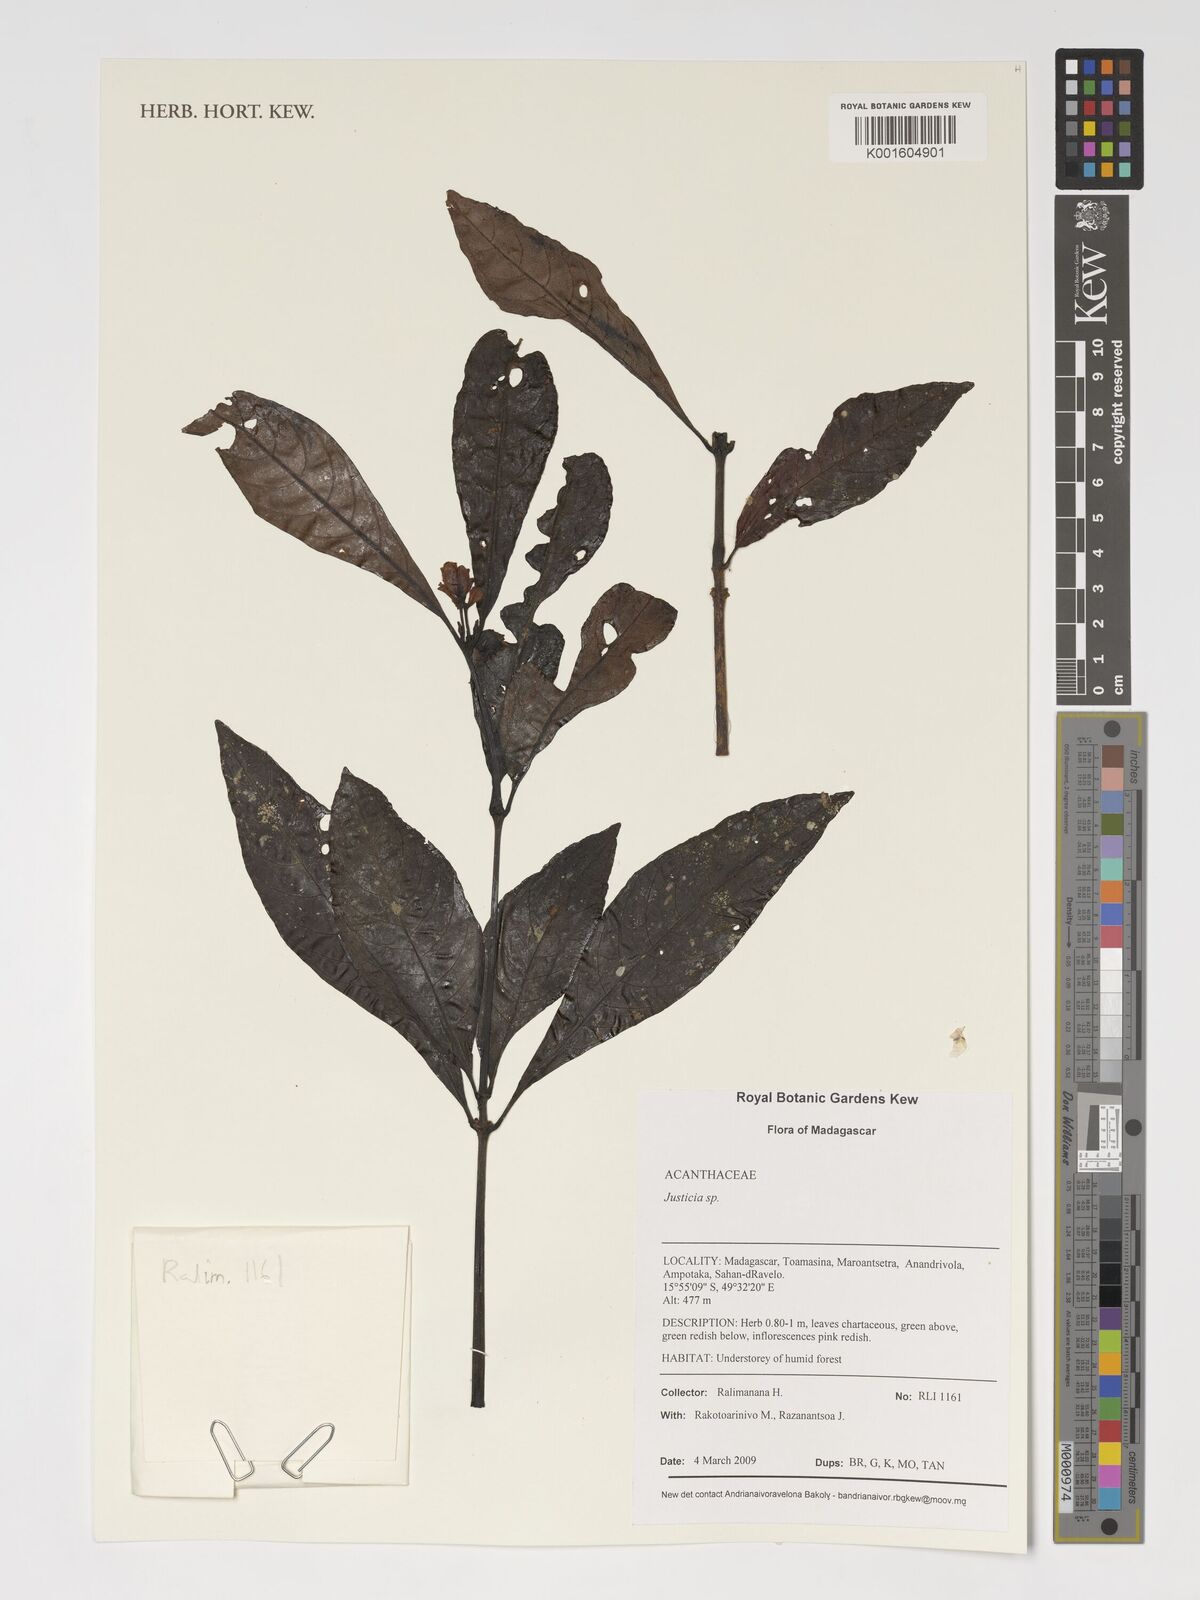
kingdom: Plantae
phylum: Tracheophyta
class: Magnoliopsida
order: Lamiales
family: Acanthaceae
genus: Justicia
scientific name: Justicia
